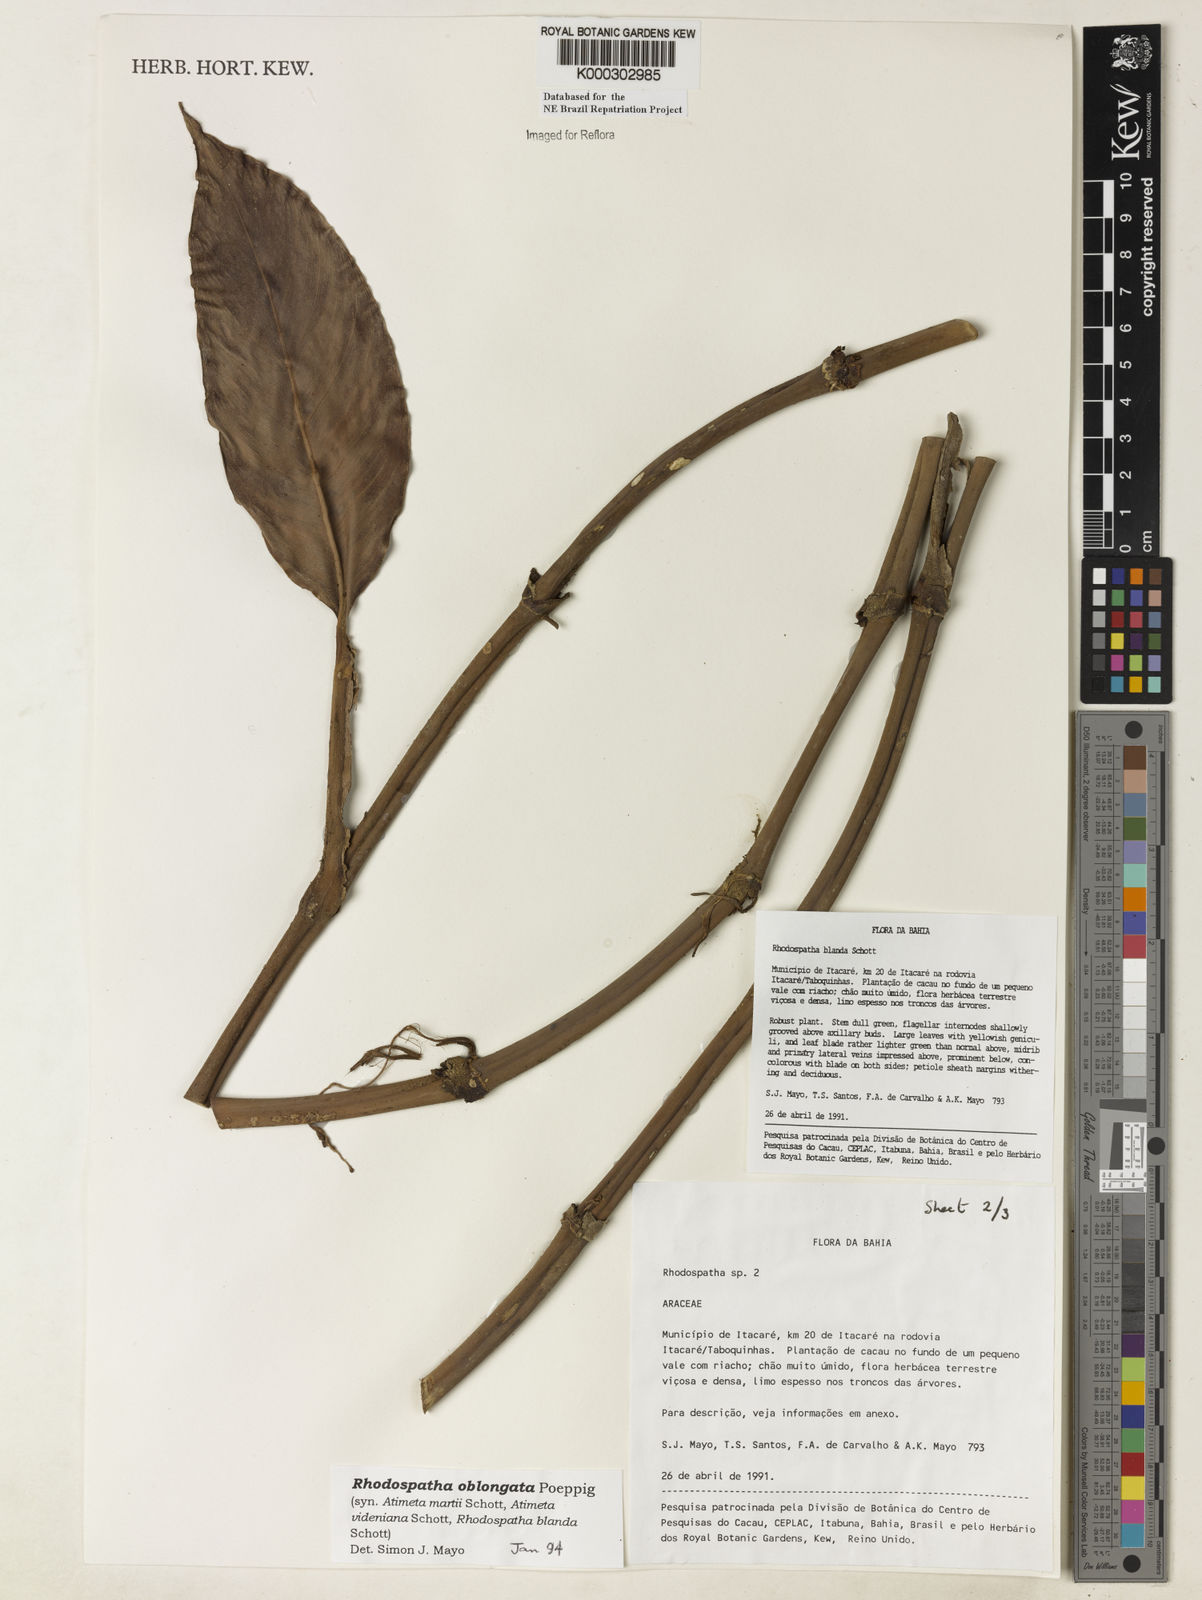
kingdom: Plantae
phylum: Tracheophyta
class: Liliopsida
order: Alismatales
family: Araceae
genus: Rhodospatha
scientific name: Rhodospatha oblongata
